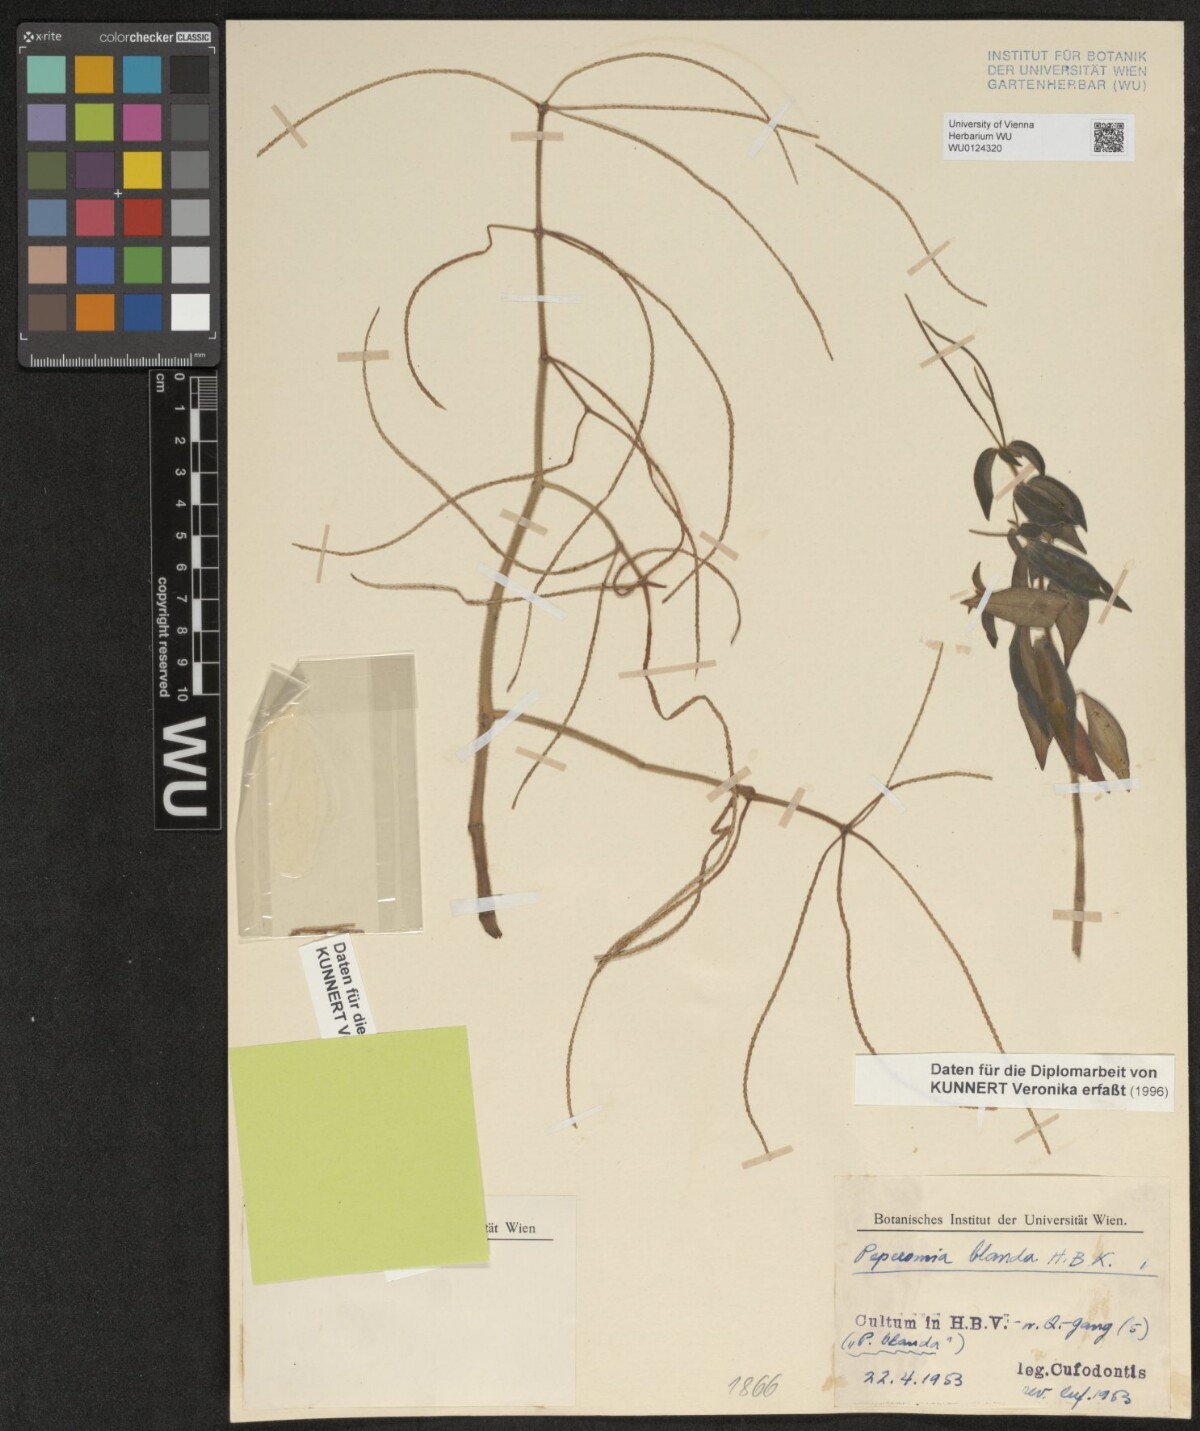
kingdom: Plantae
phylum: Tracheophyta
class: Magnoliopsida
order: Piperales
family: Piperaceae
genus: Peperomia
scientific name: Peperomia blanda
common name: Arid-land peperomia
